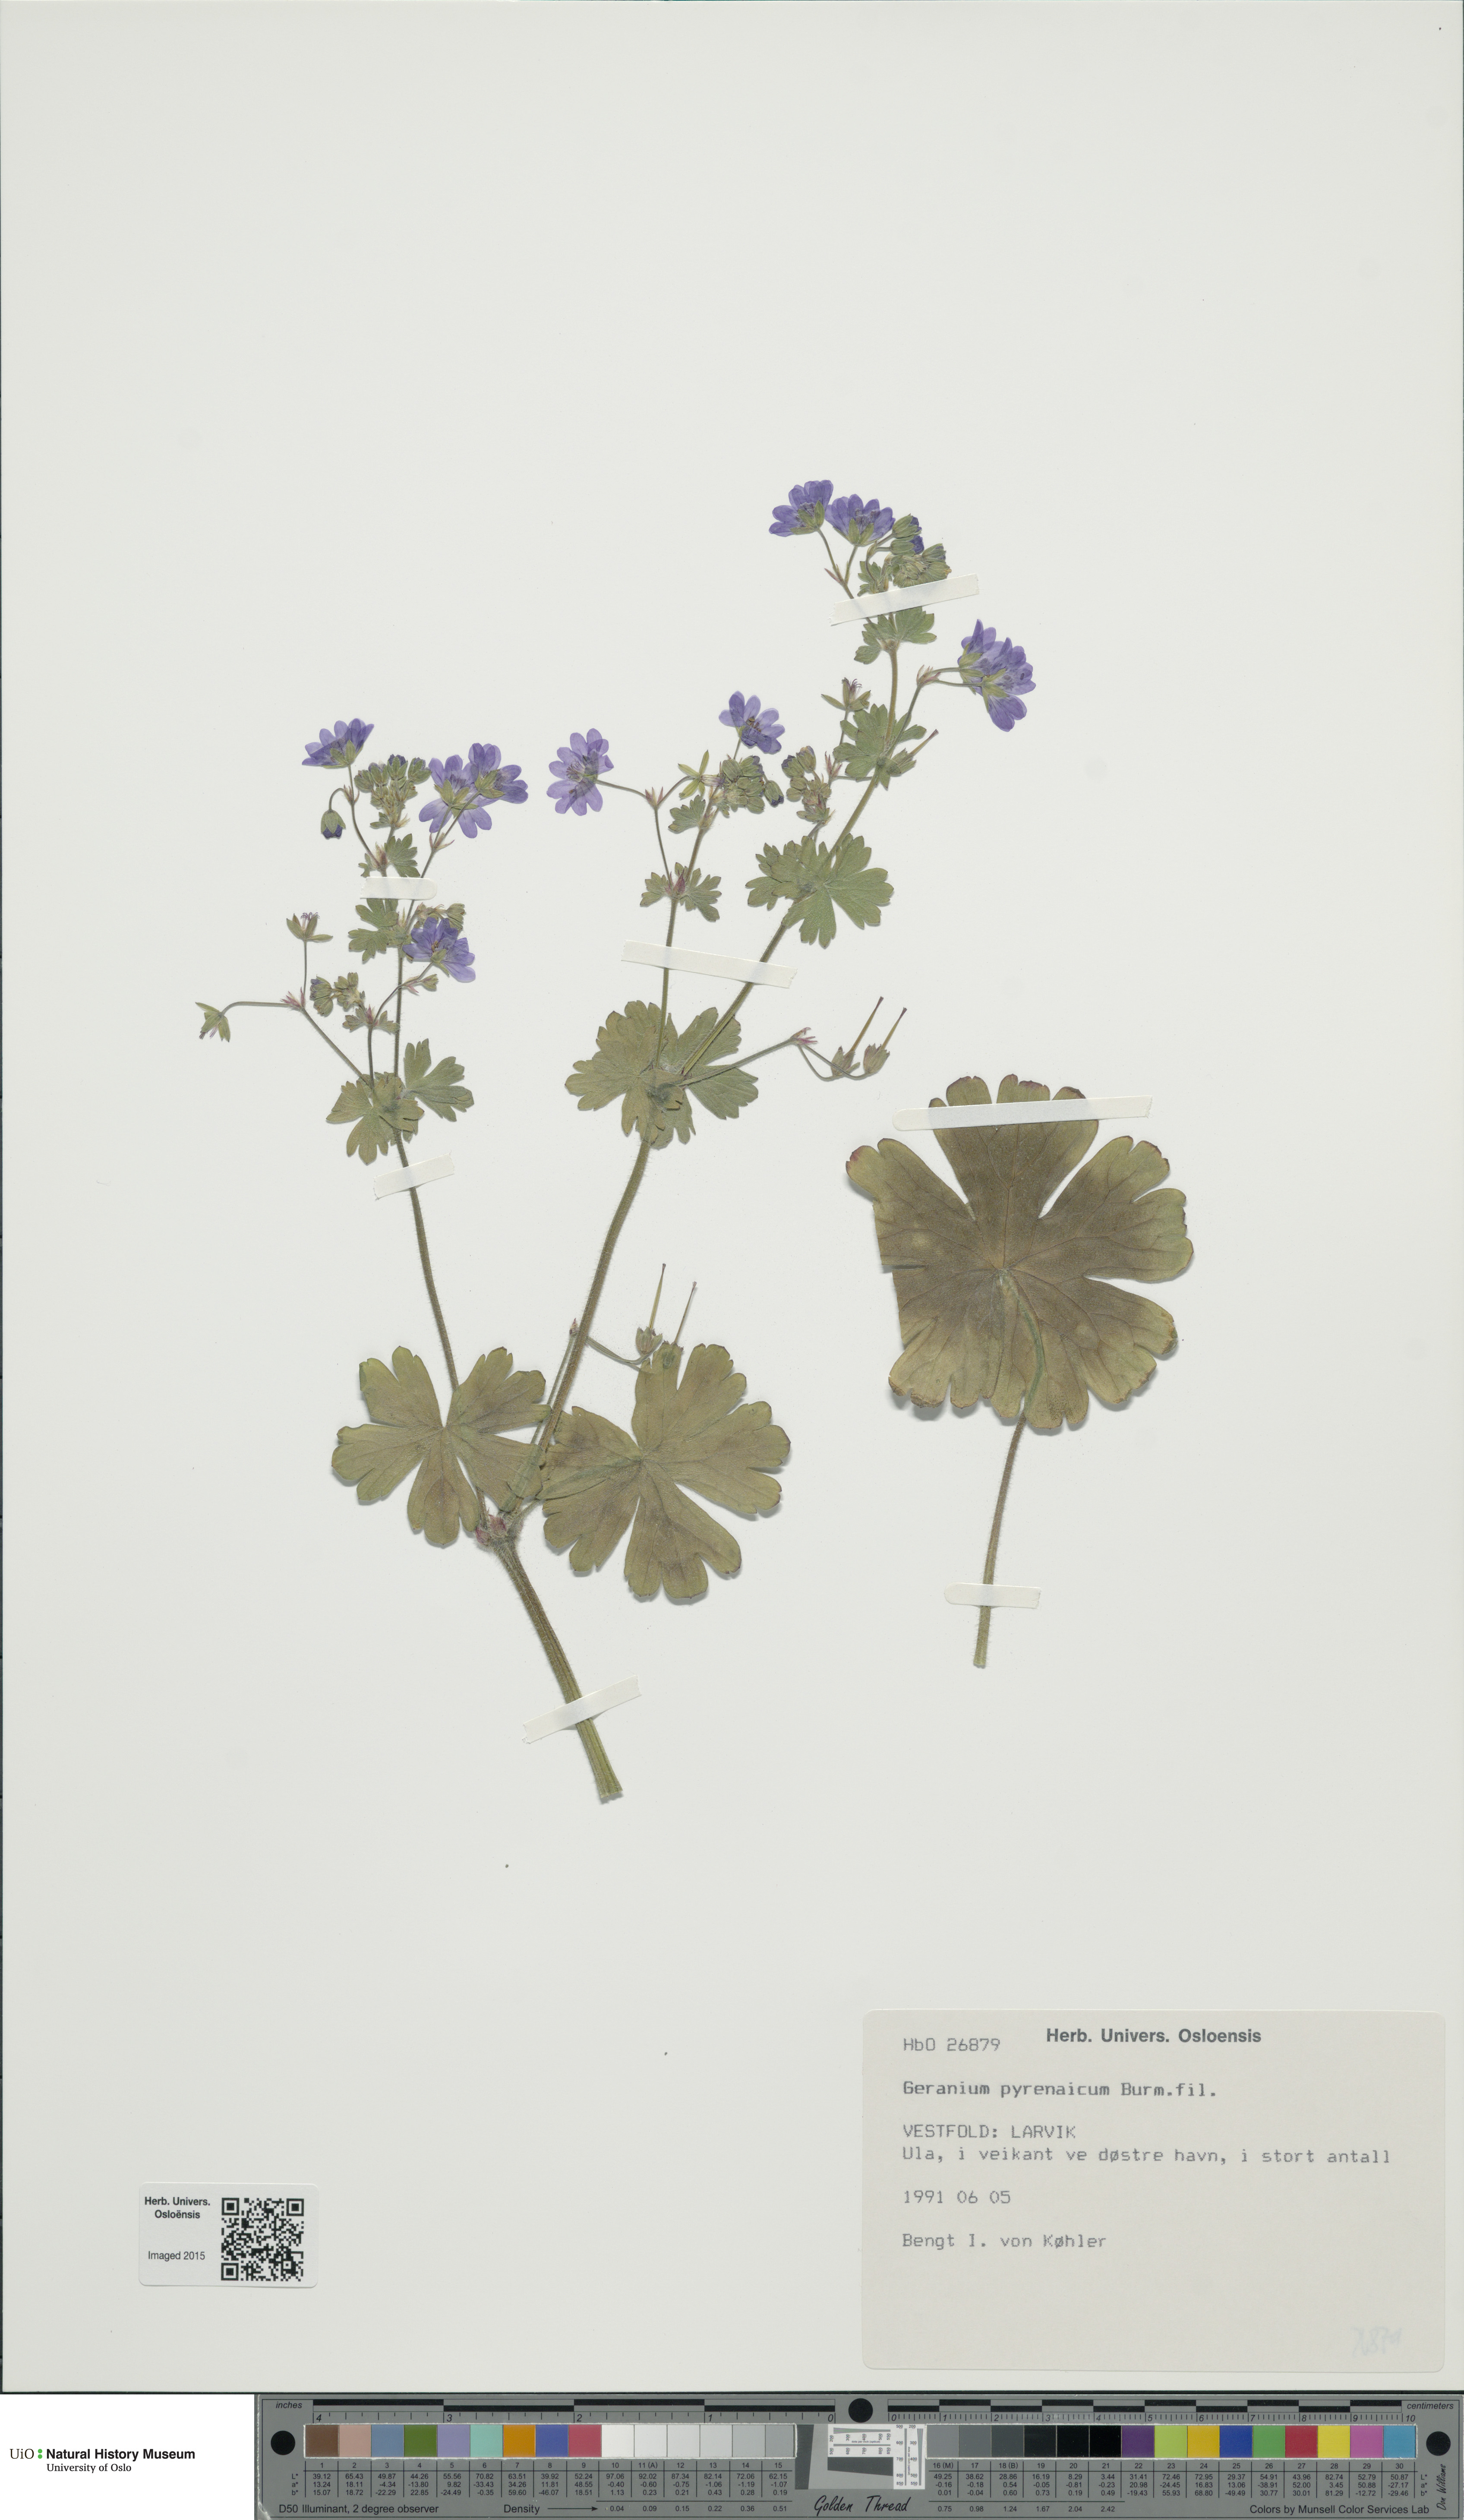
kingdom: Plantae
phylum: Tracheophyta
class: Magnoliopsida
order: Geraniales
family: Geraniaceae
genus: Geranium
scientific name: Geranium pyrenaicum
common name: Hedgerow crane's-bill
